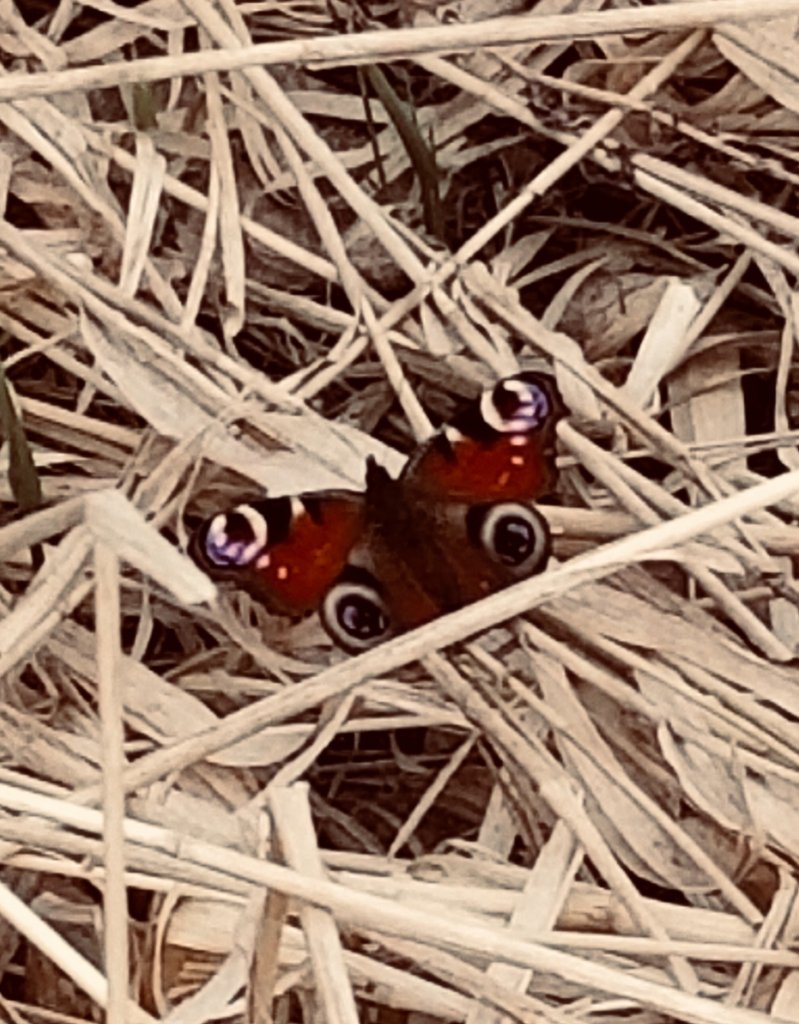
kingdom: Animalia
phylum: Arthropoda
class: Insecta
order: Lepidoptera
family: Nymphalidae
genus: Aglais
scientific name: Aglais io
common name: European Peacock
